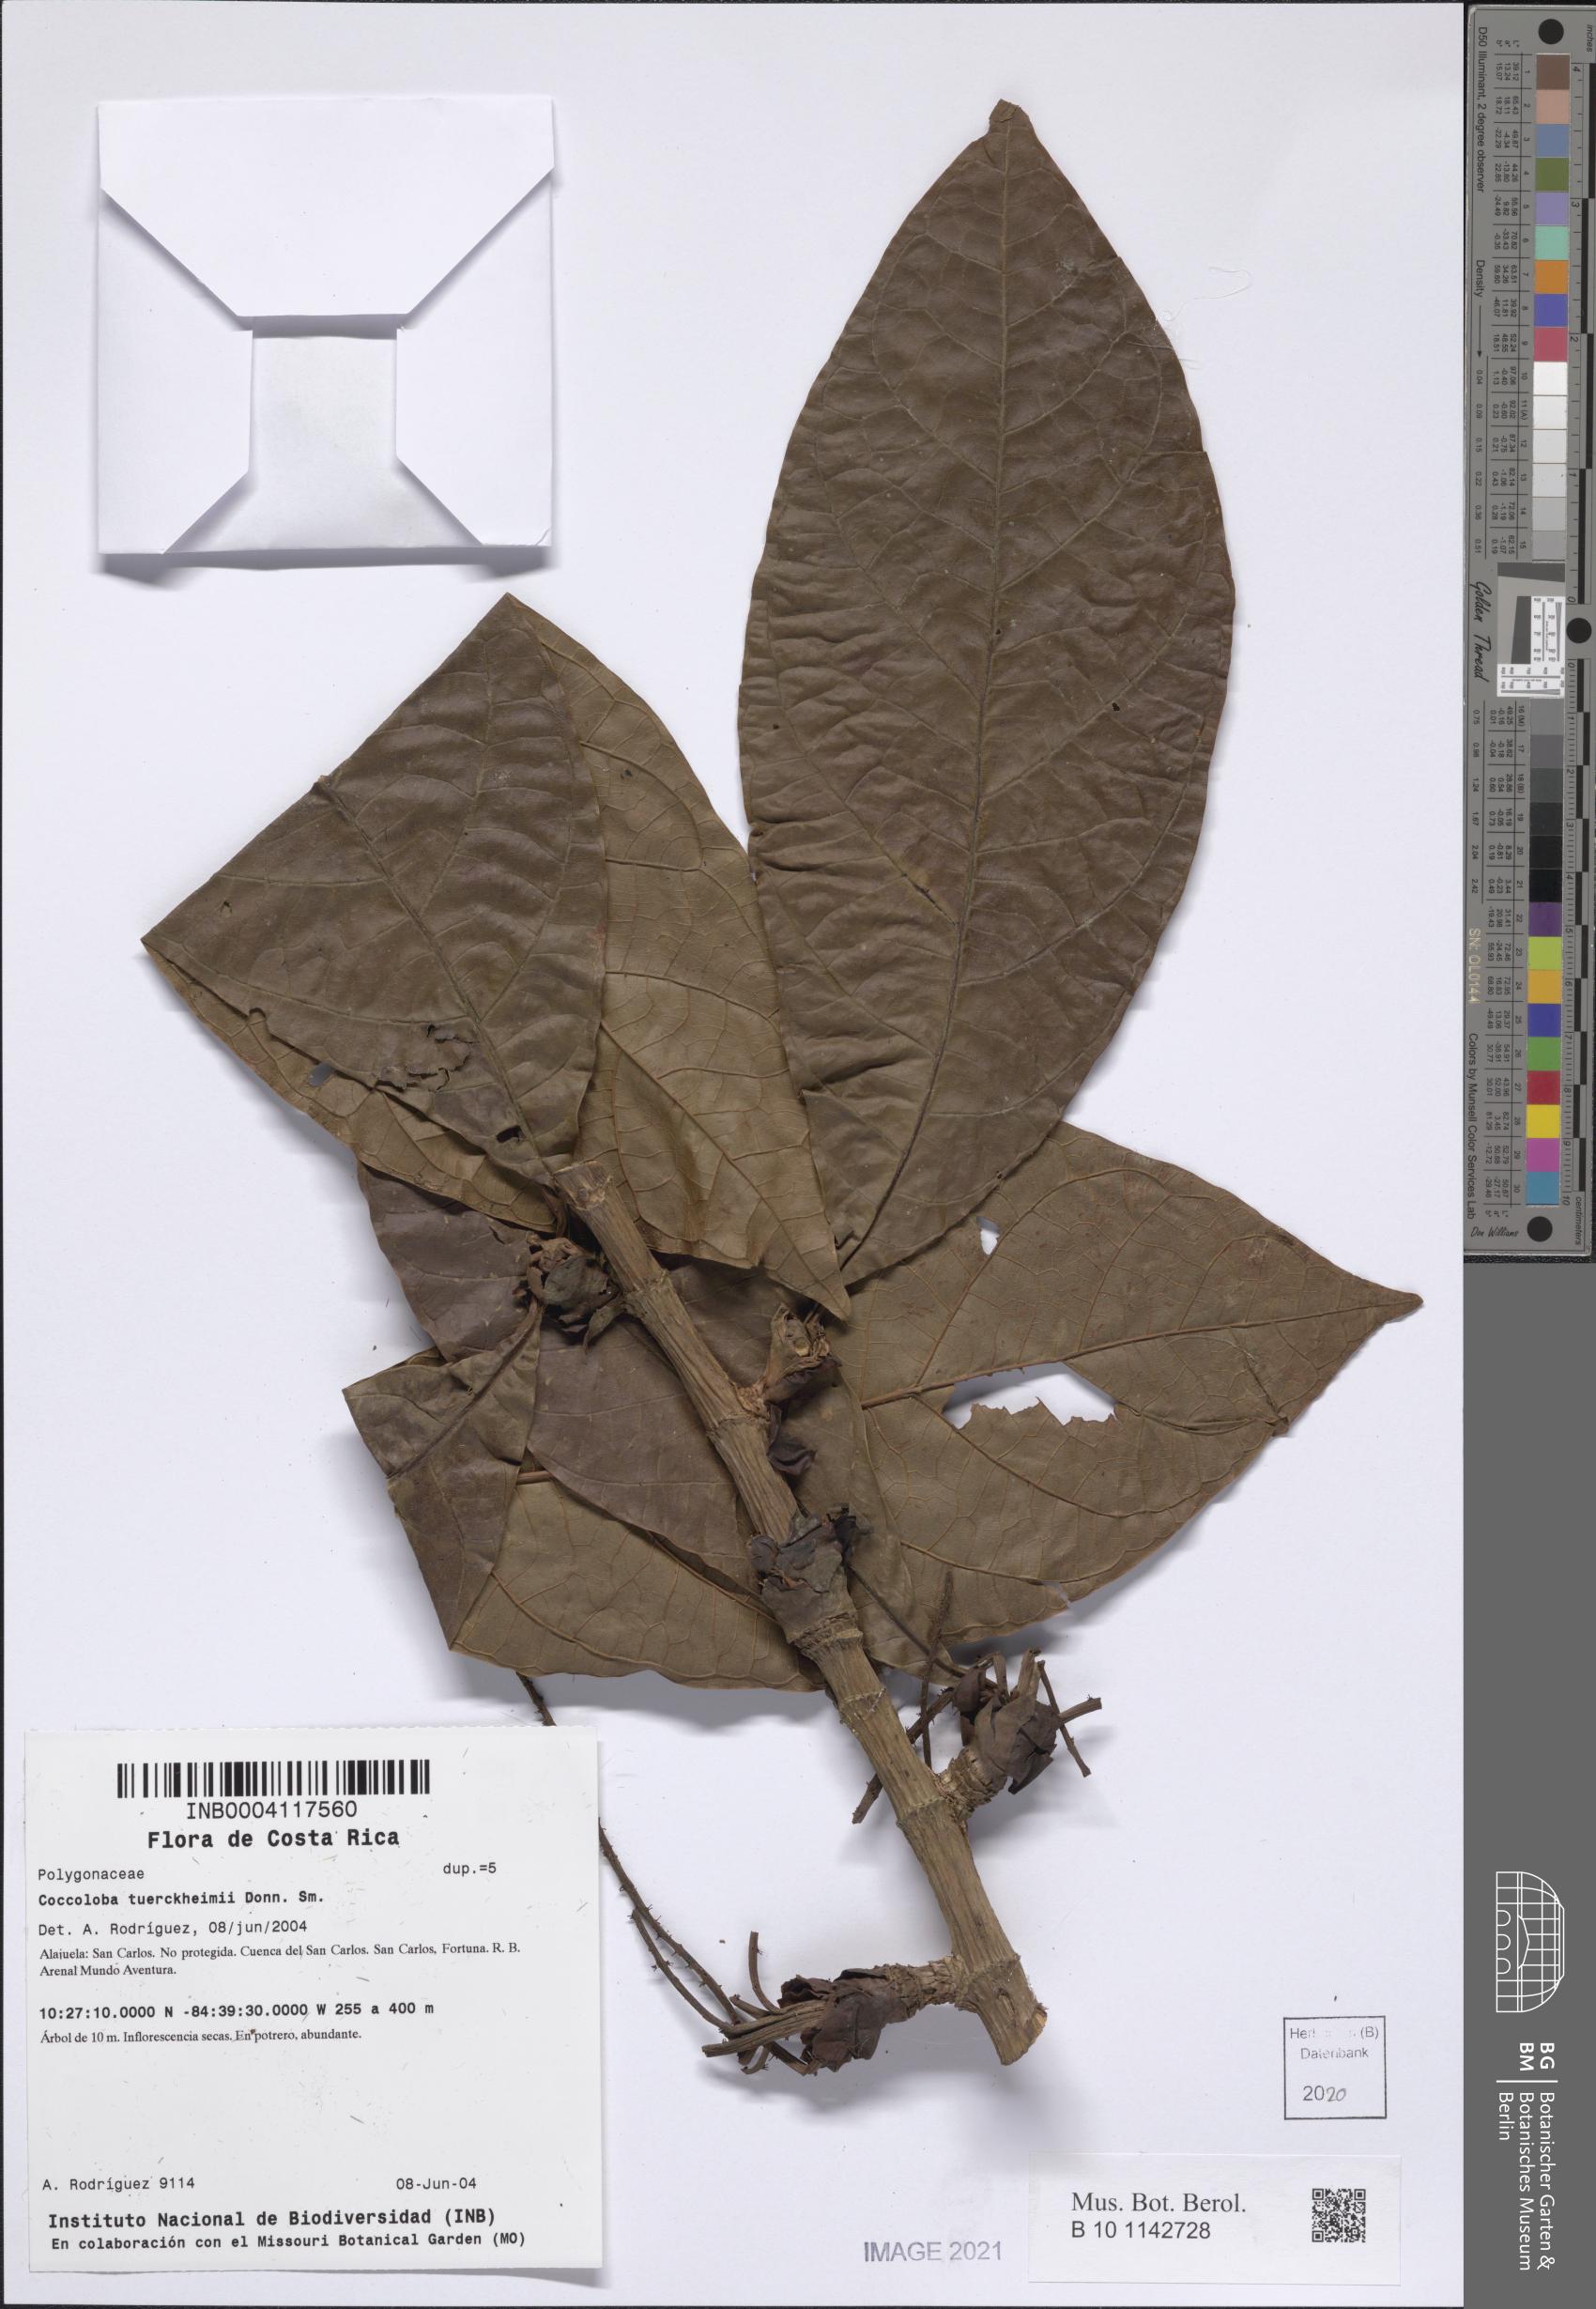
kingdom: Plantae
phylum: Tracheophyta
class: Magnoliopsida
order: Caryophyllales
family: Polygonaceae
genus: Coccoloba
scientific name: Coccoloba tuerckheimii
